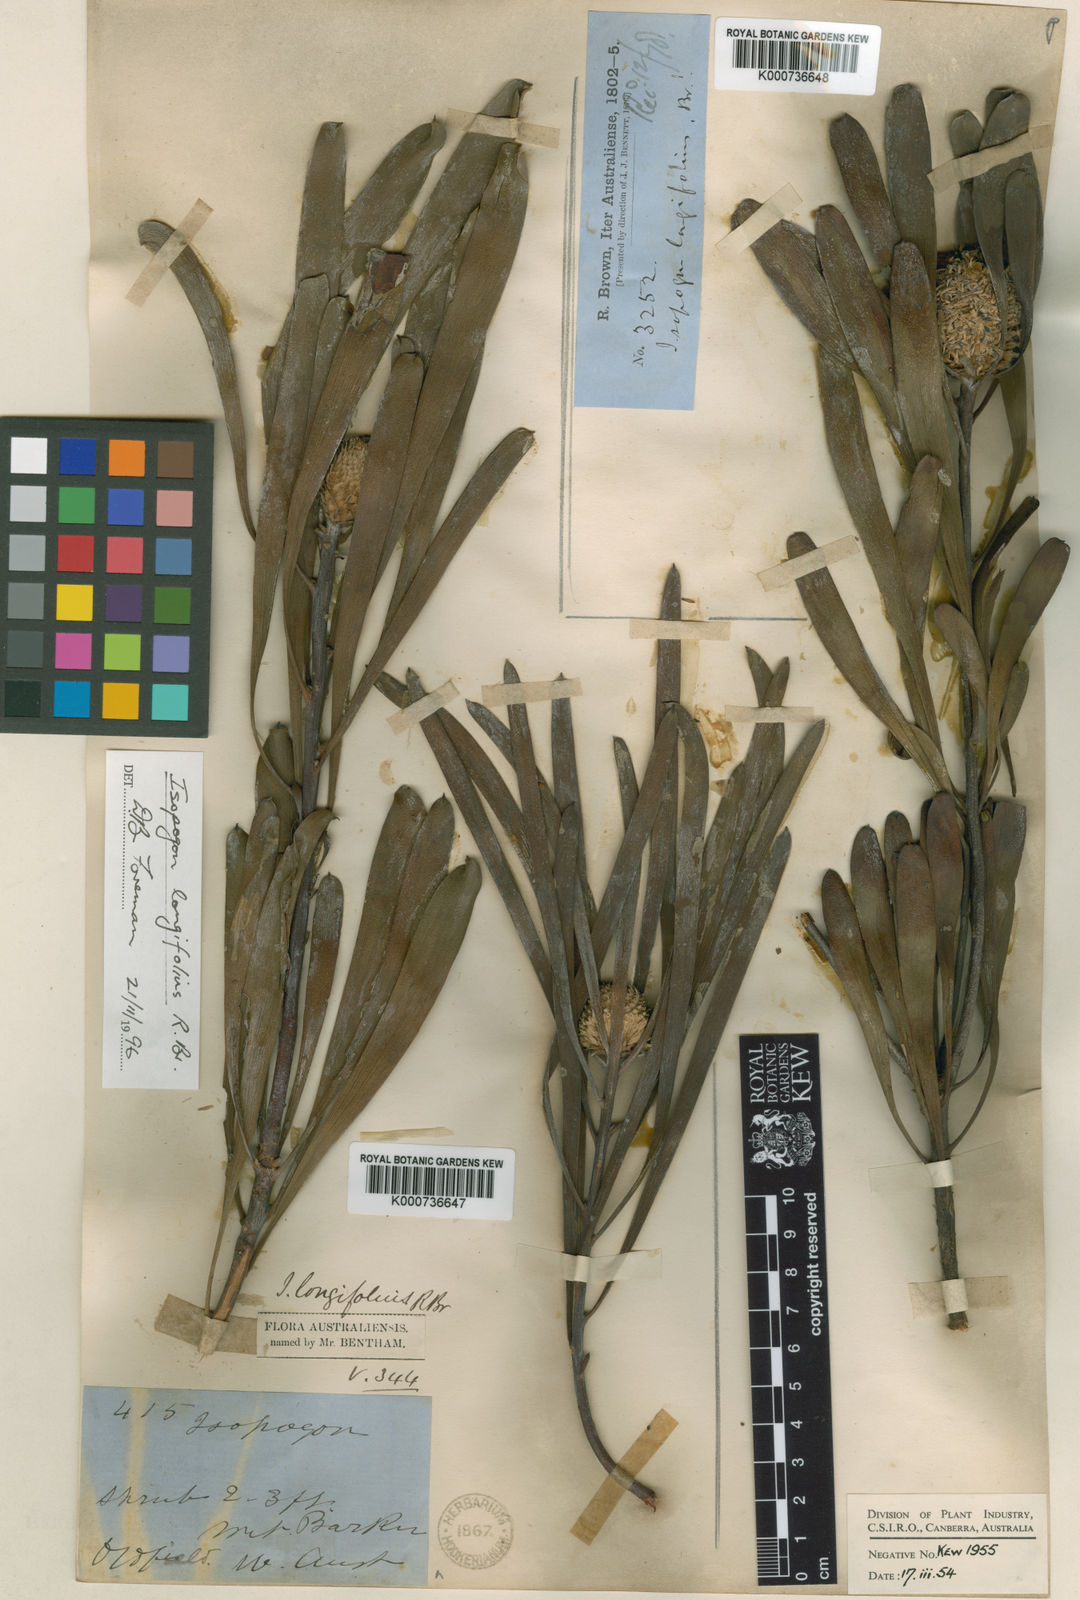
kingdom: Plantae
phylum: Tracheophyta
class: Magnoliopsida
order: Proteales
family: Proteaceae
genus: Isopogon
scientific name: Isopogon longifolius
